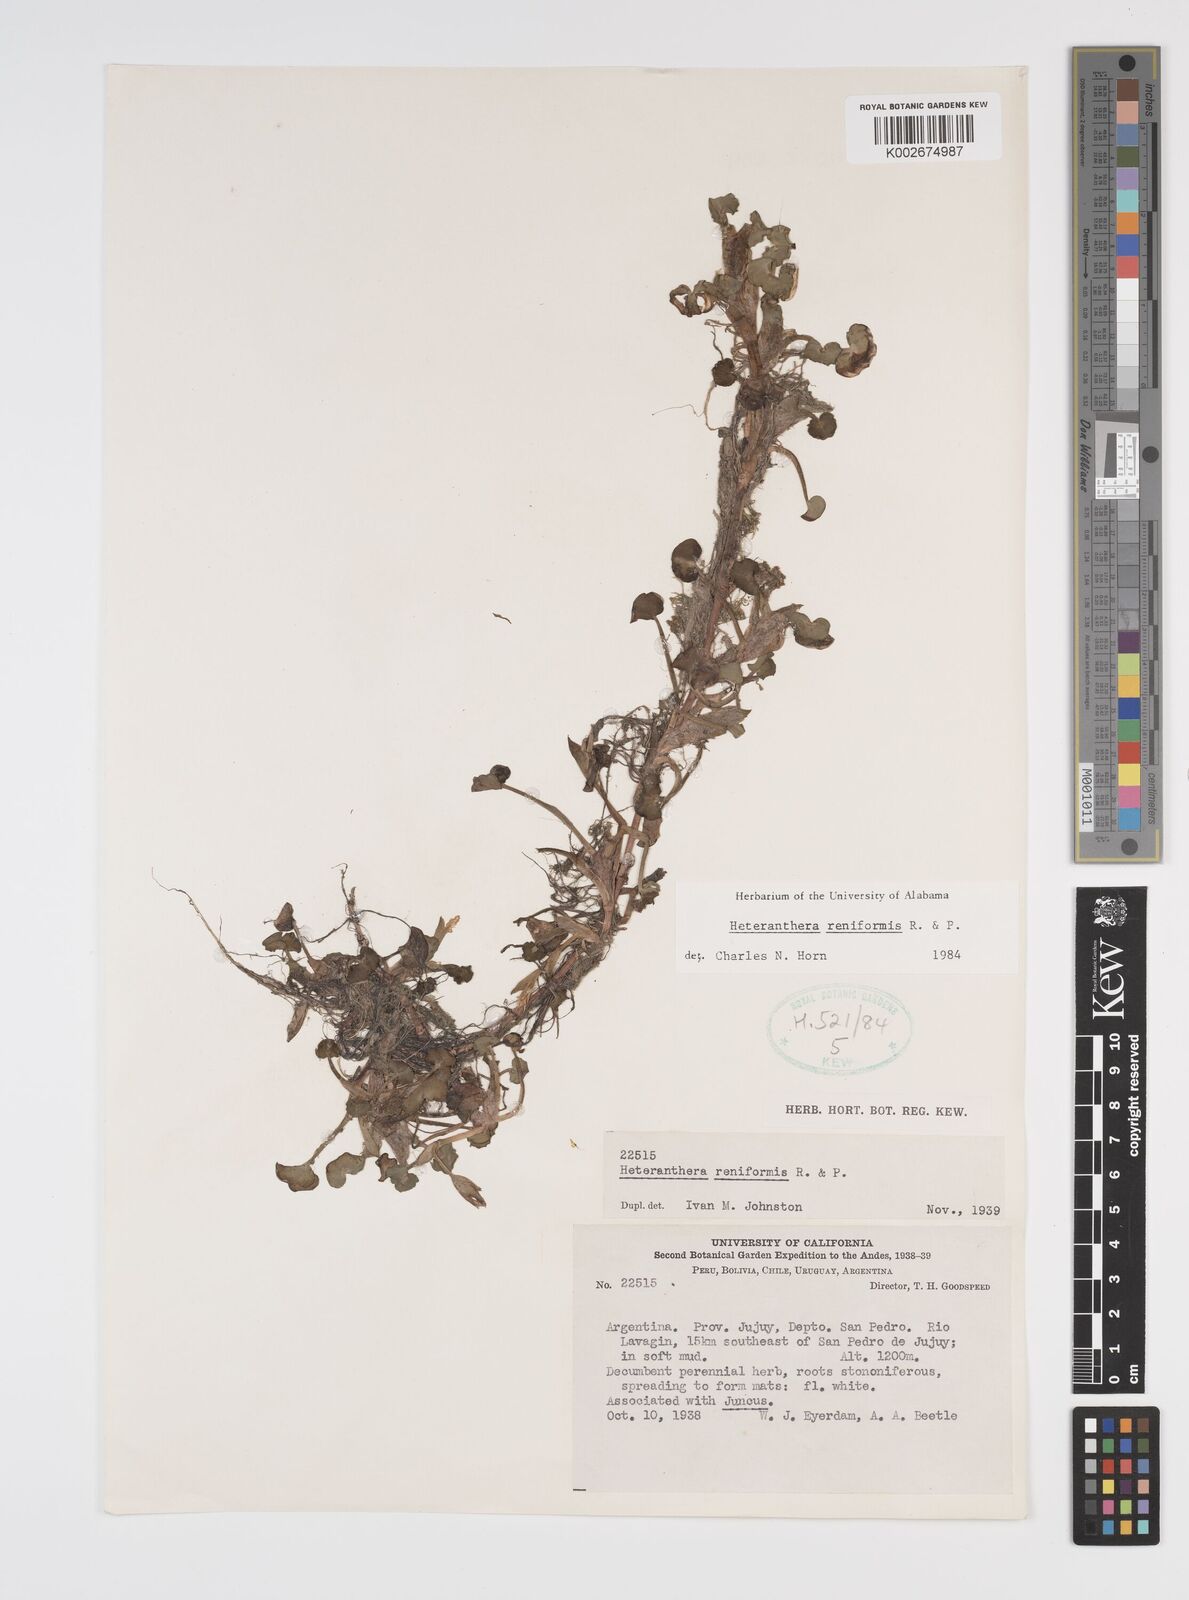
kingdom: Plantae
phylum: Tracheophyta
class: Liliopsida
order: Commelinales
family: Pontederiaceae
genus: Heteranthera
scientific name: Heteranthera reniformis
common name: Kidneyleaf mudplantain
